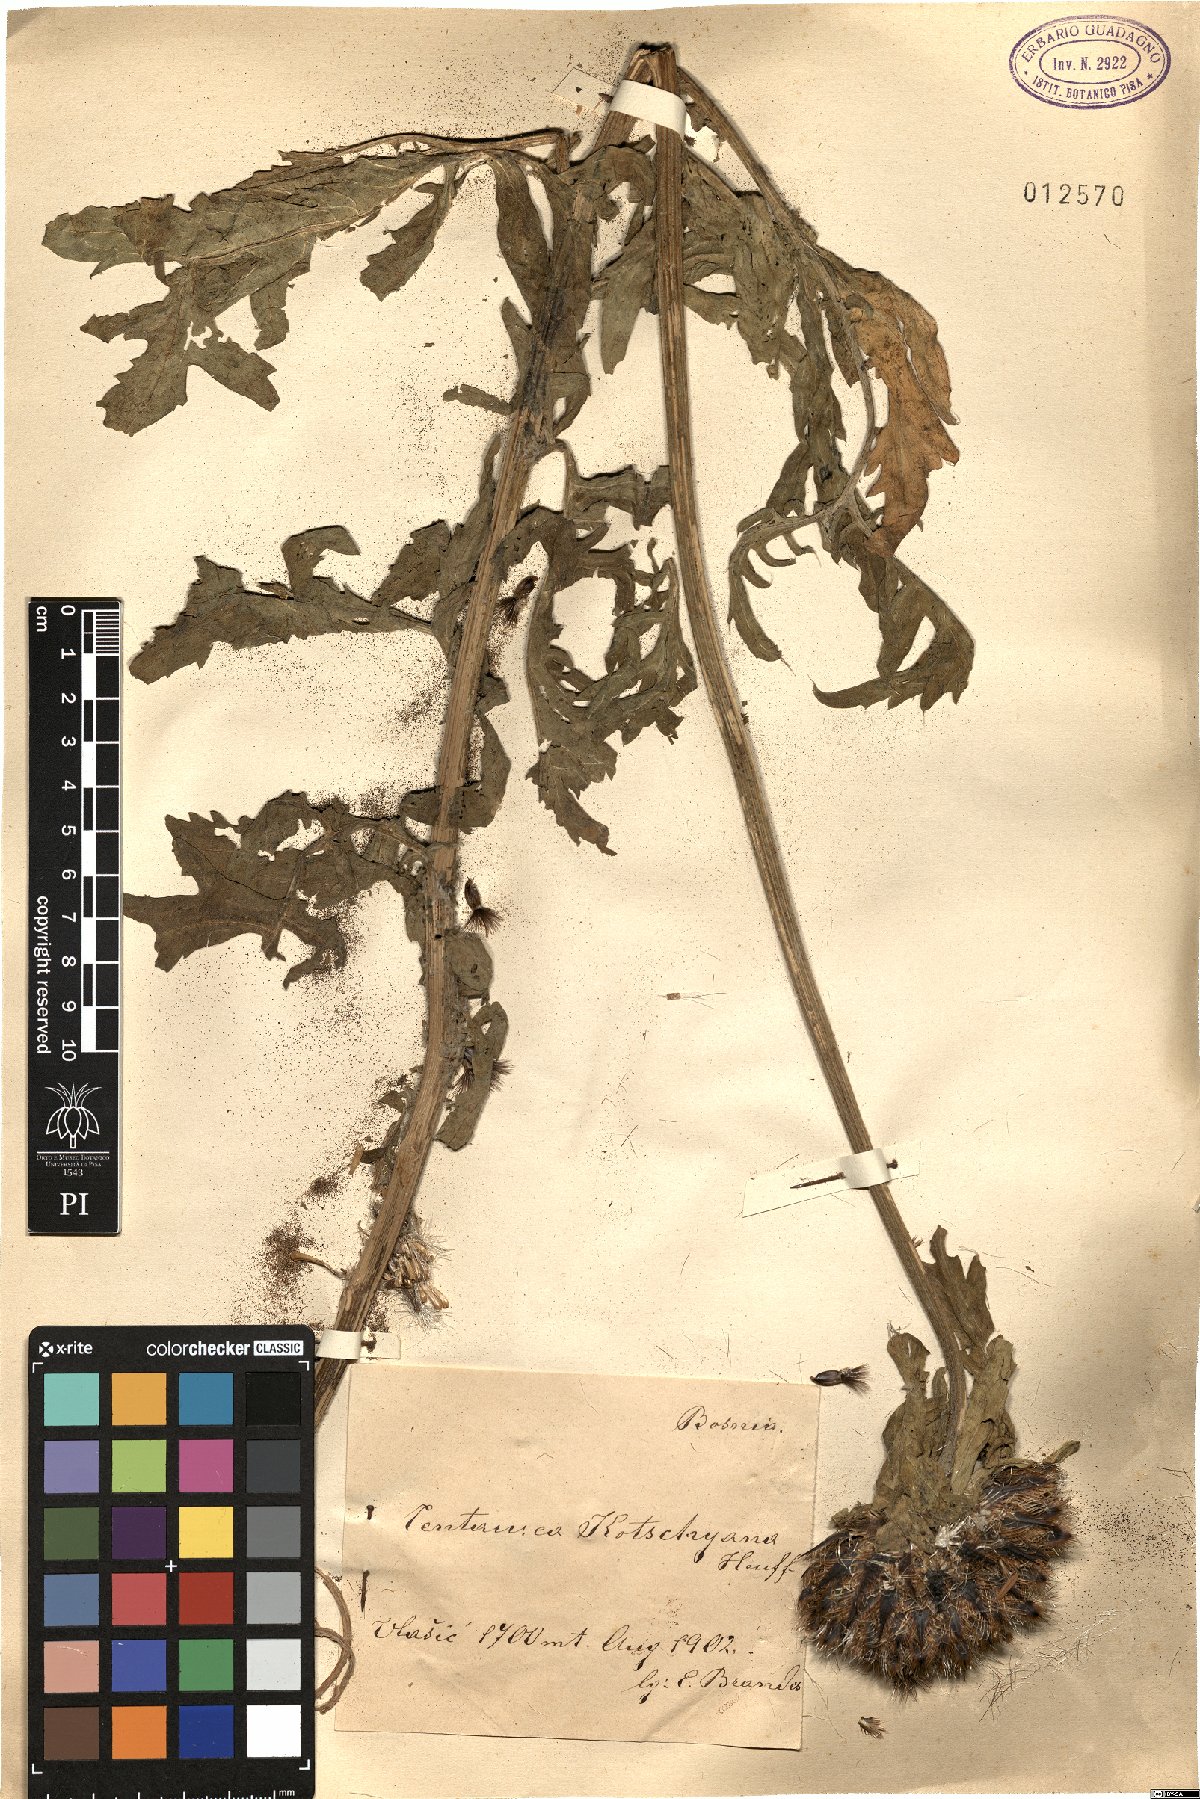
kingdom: Plantae
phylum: Tracheophyta
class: Magnoliopsida
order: Asterales
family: Asteraceae
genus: Centaurea
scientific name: Centaurea kotschyana
